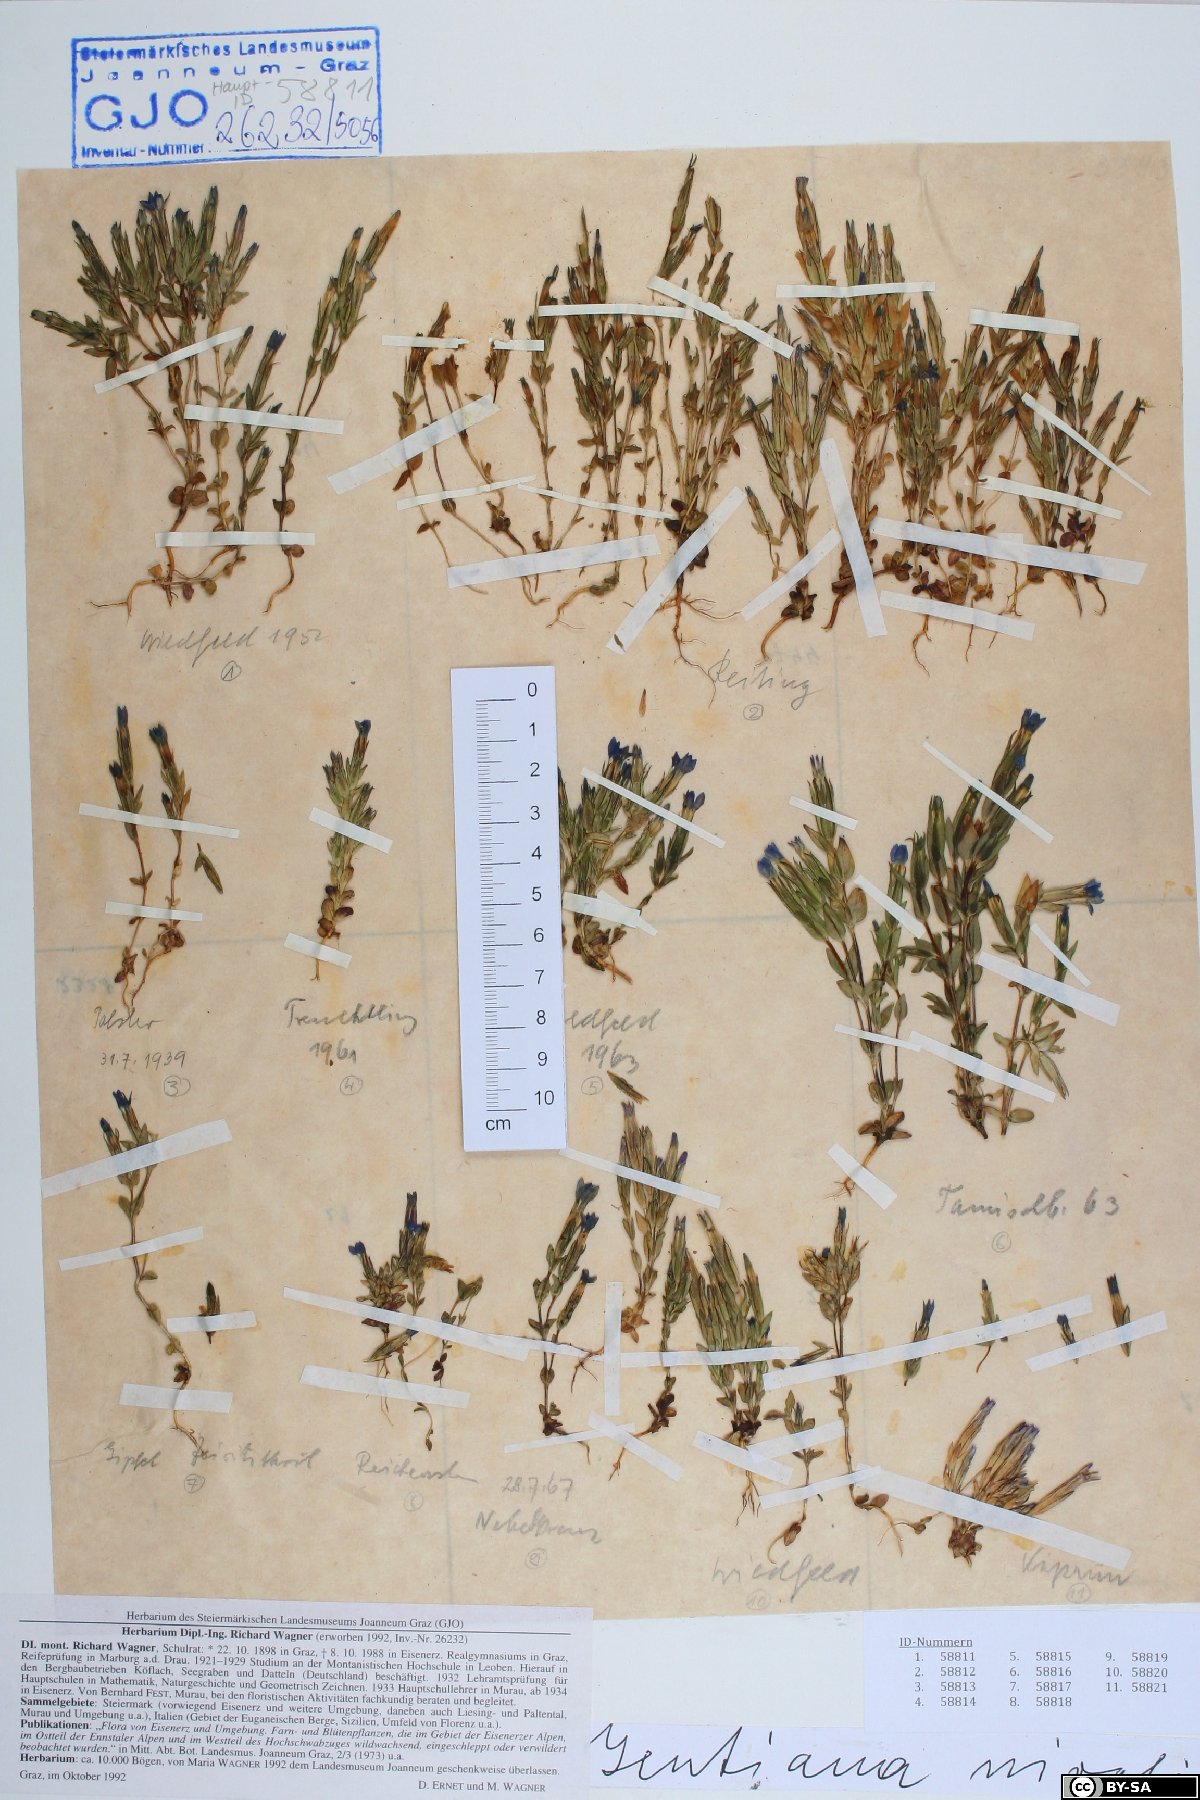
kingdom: Plantae
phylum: Tracheophyta
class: Magnoliopsida
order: Gentianales
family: Gentianaceae
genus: Gentiana
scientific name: Gentiana nivalis
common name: Alpine gentian
